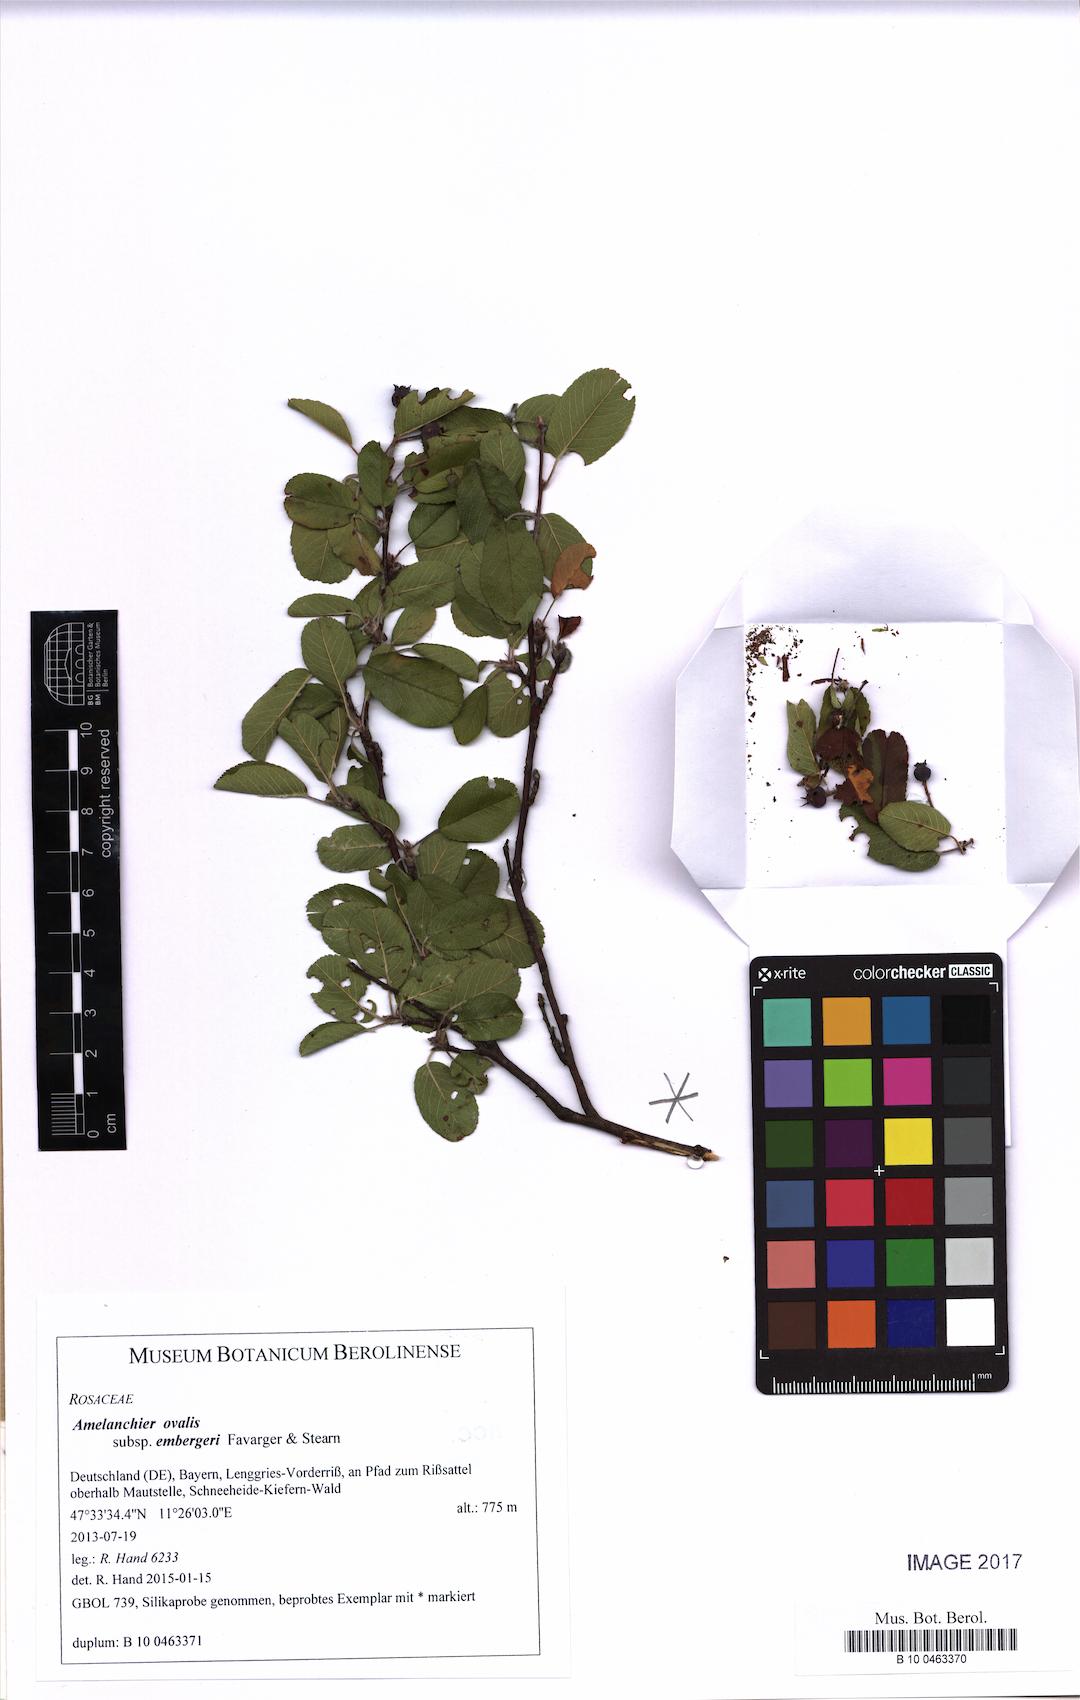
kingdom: Plantae
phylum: Tracheophyta
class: Magnoliopsida
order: Rosales
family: Rosaceae
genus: Amelanchier
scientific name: Amelanchier embergeri
